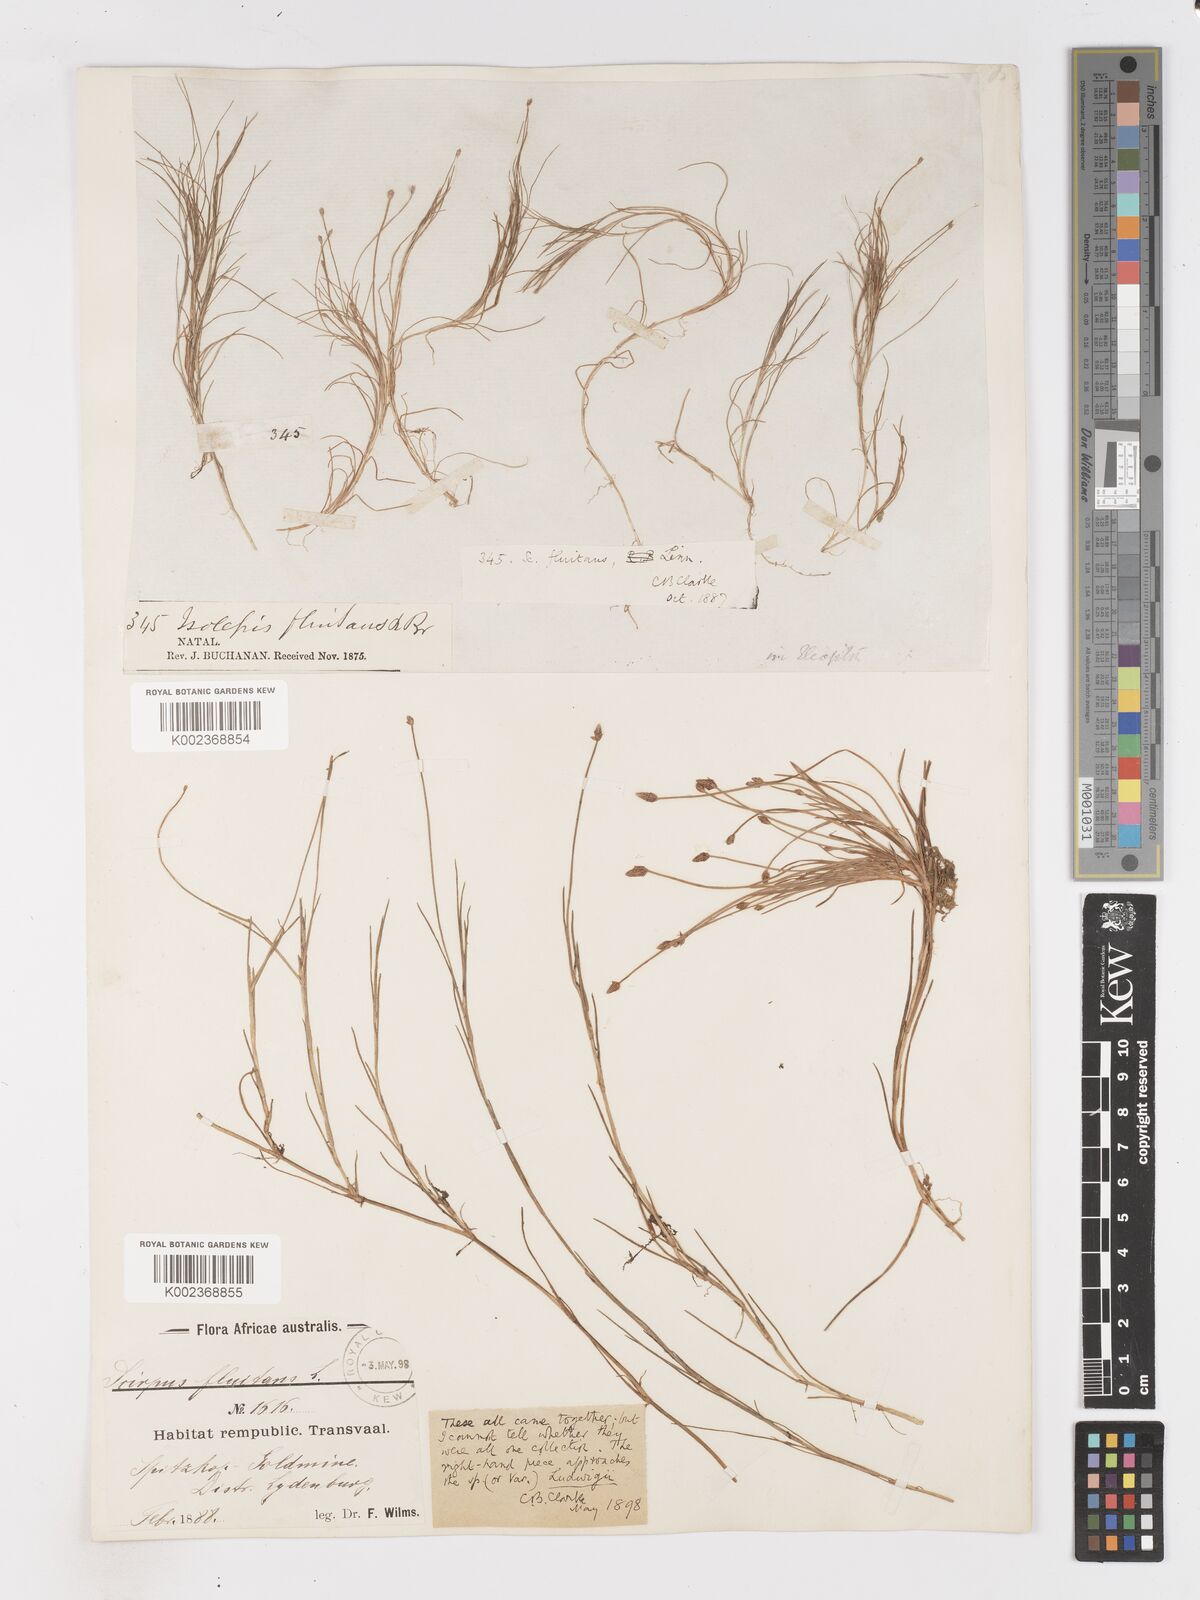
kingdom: Plantae
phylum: Tracheophyta
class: Liliopsida
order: Poales
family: Cyperaceae
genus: Isolepis
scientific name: Isolepis fluitans
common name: Floating club-rush
